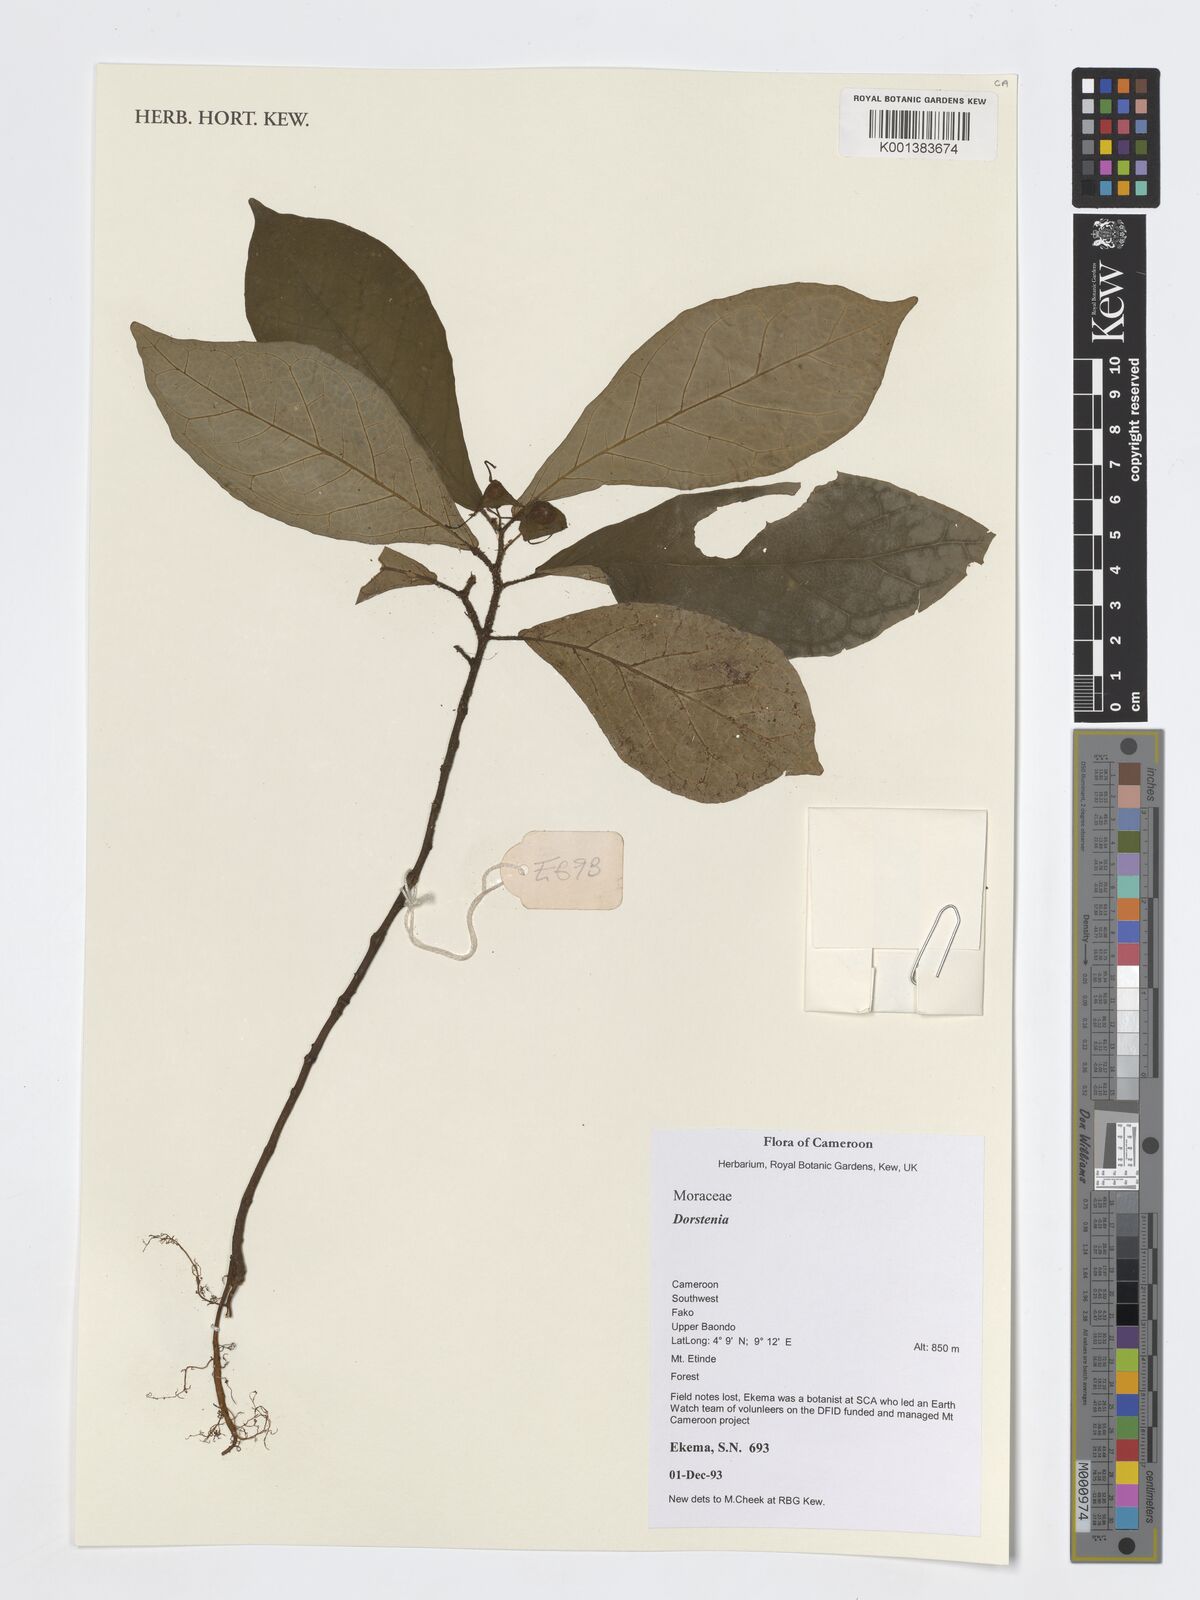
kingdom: Plantae
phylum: Tracheophyta
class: Magnoliopsida
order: Rosales
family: Moraceae
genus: Dorstenia
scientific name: Dorstenia
